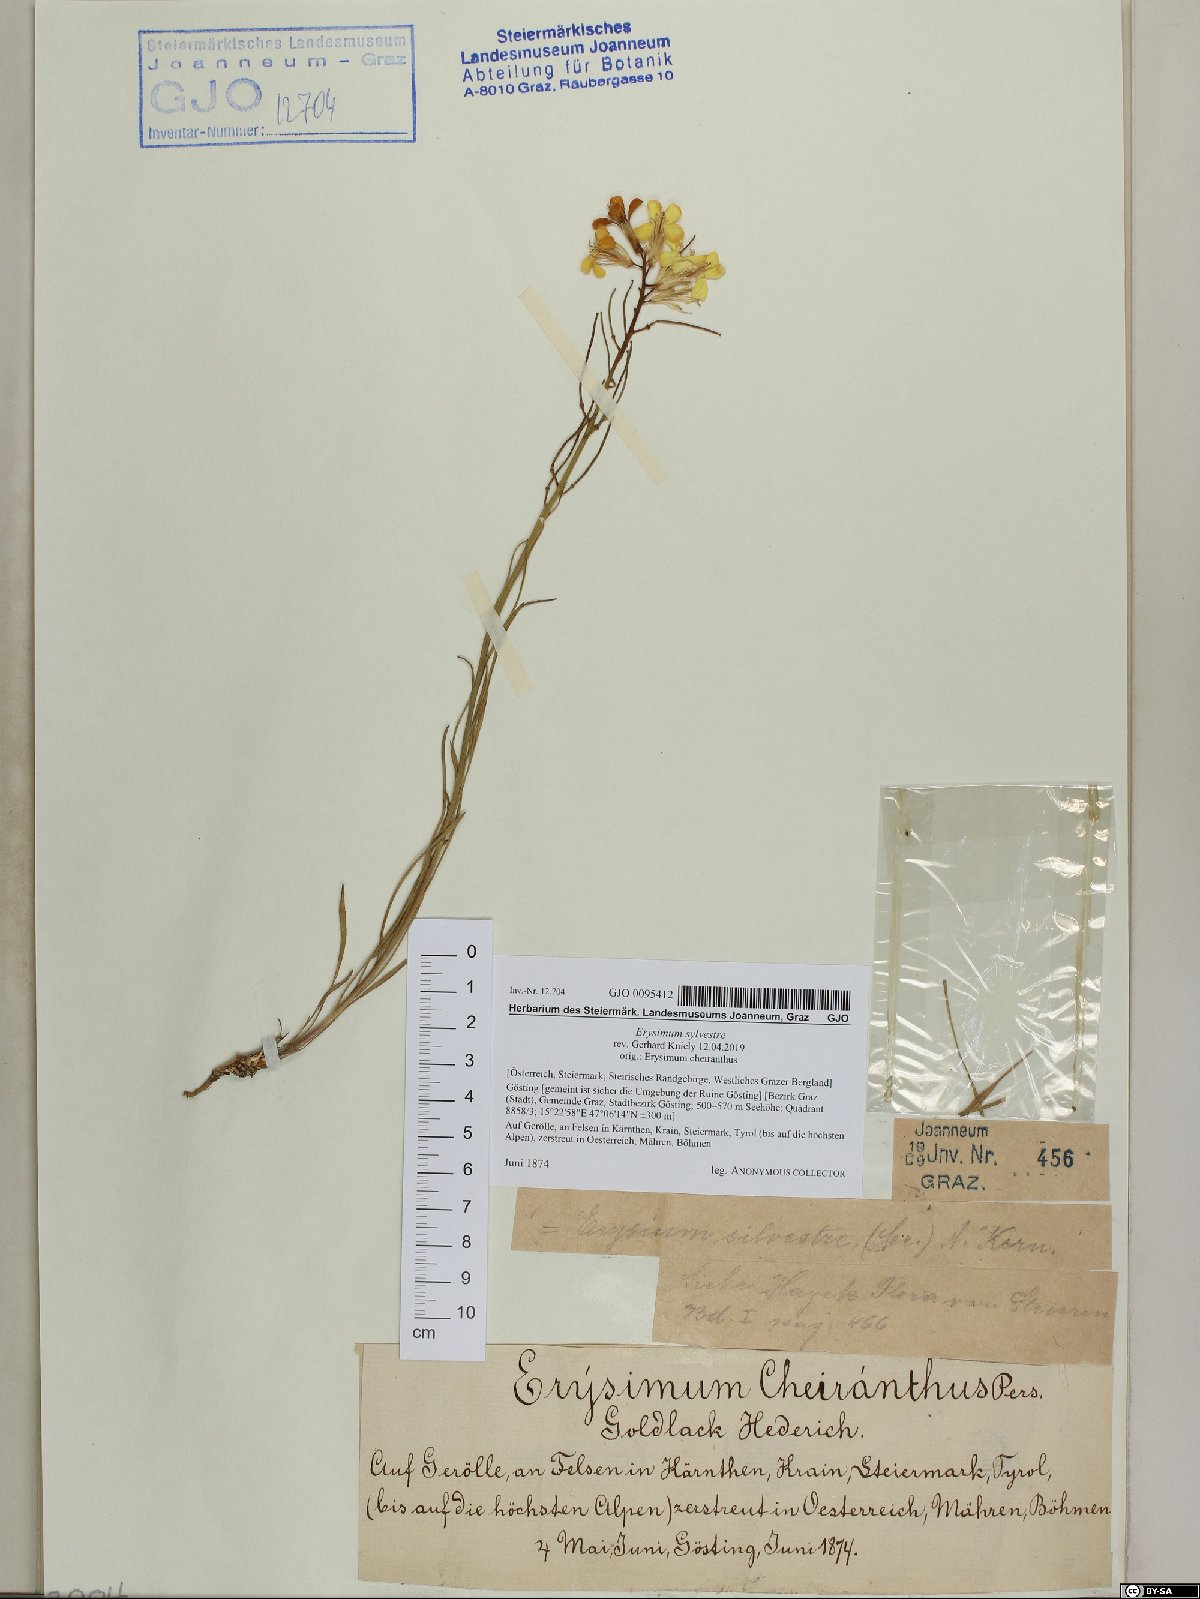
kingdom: Plantae
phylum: Tracheophyta
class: Magnoliopsida
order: Brassicales
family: Brassicaceae
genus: Erysimum
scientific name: Erysimum sylvestre
